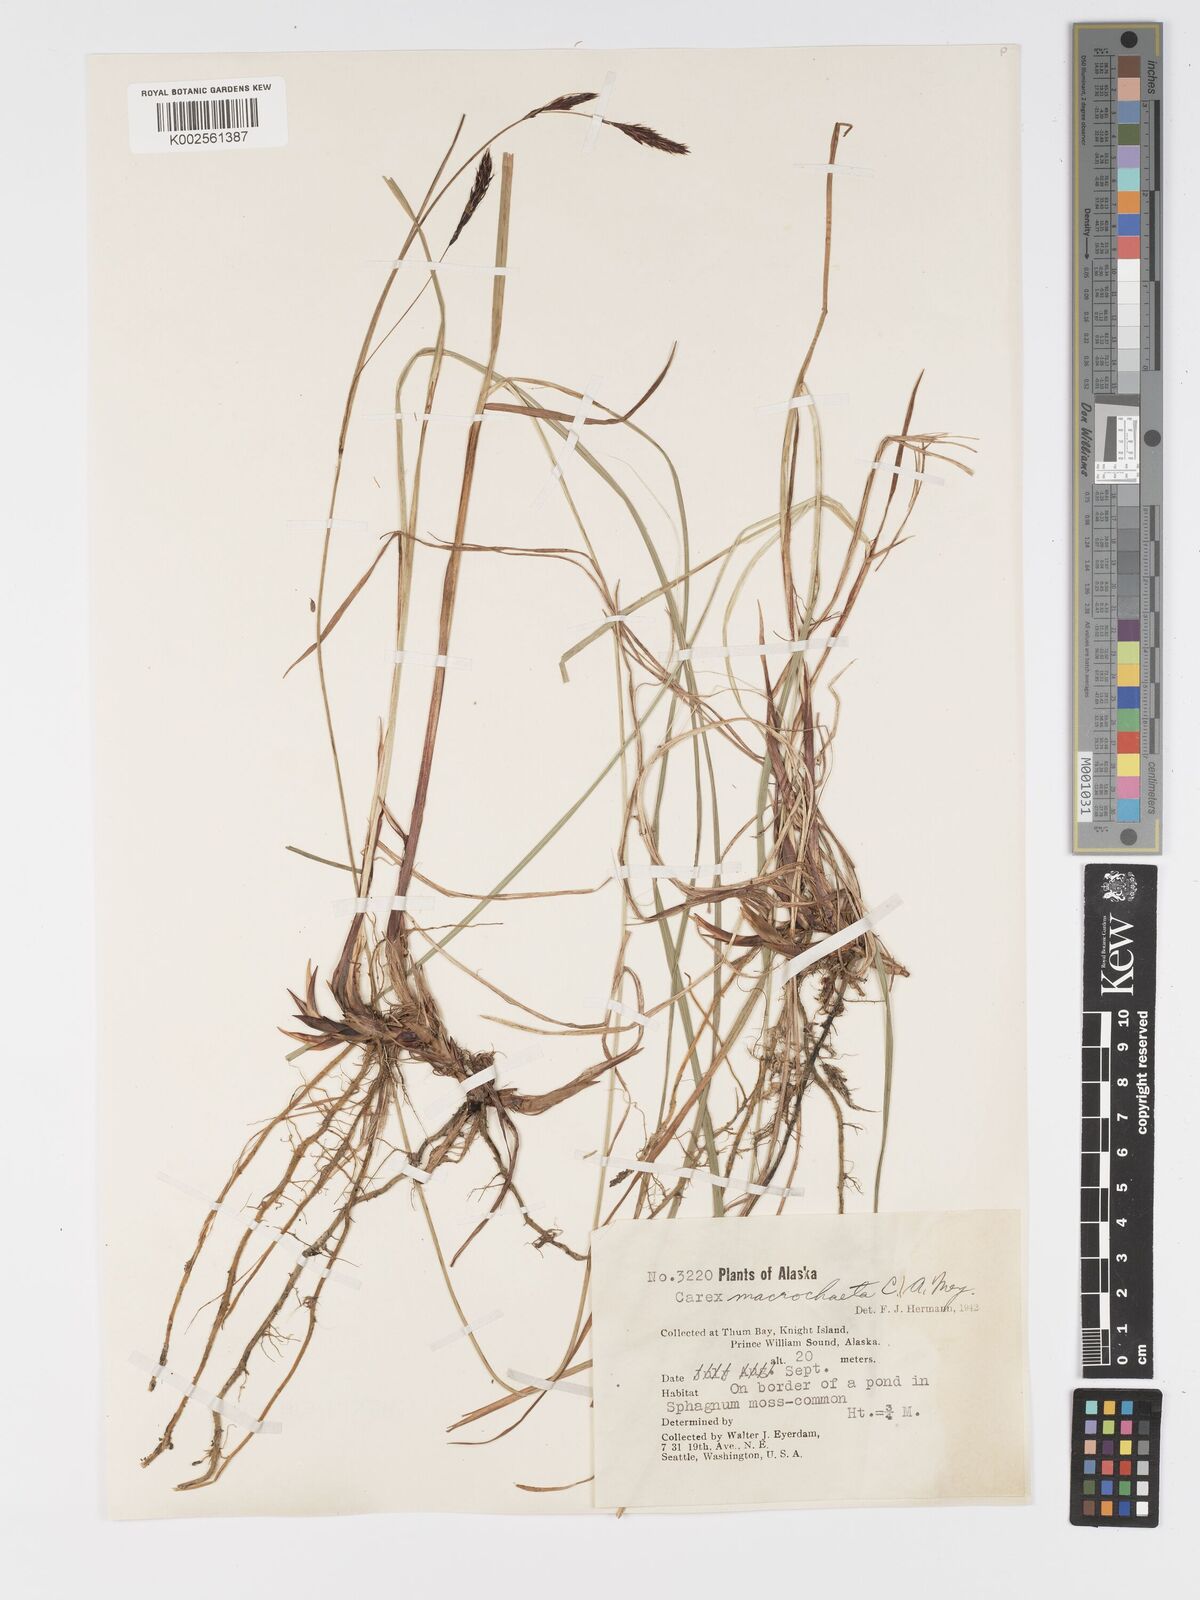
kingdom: Plantae
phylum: Tracheophyta
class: Liliopsida
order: Poales
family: Cyperaceae
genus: Carex
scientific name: Carex macrochaeta
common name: Alaska large awn sedge
